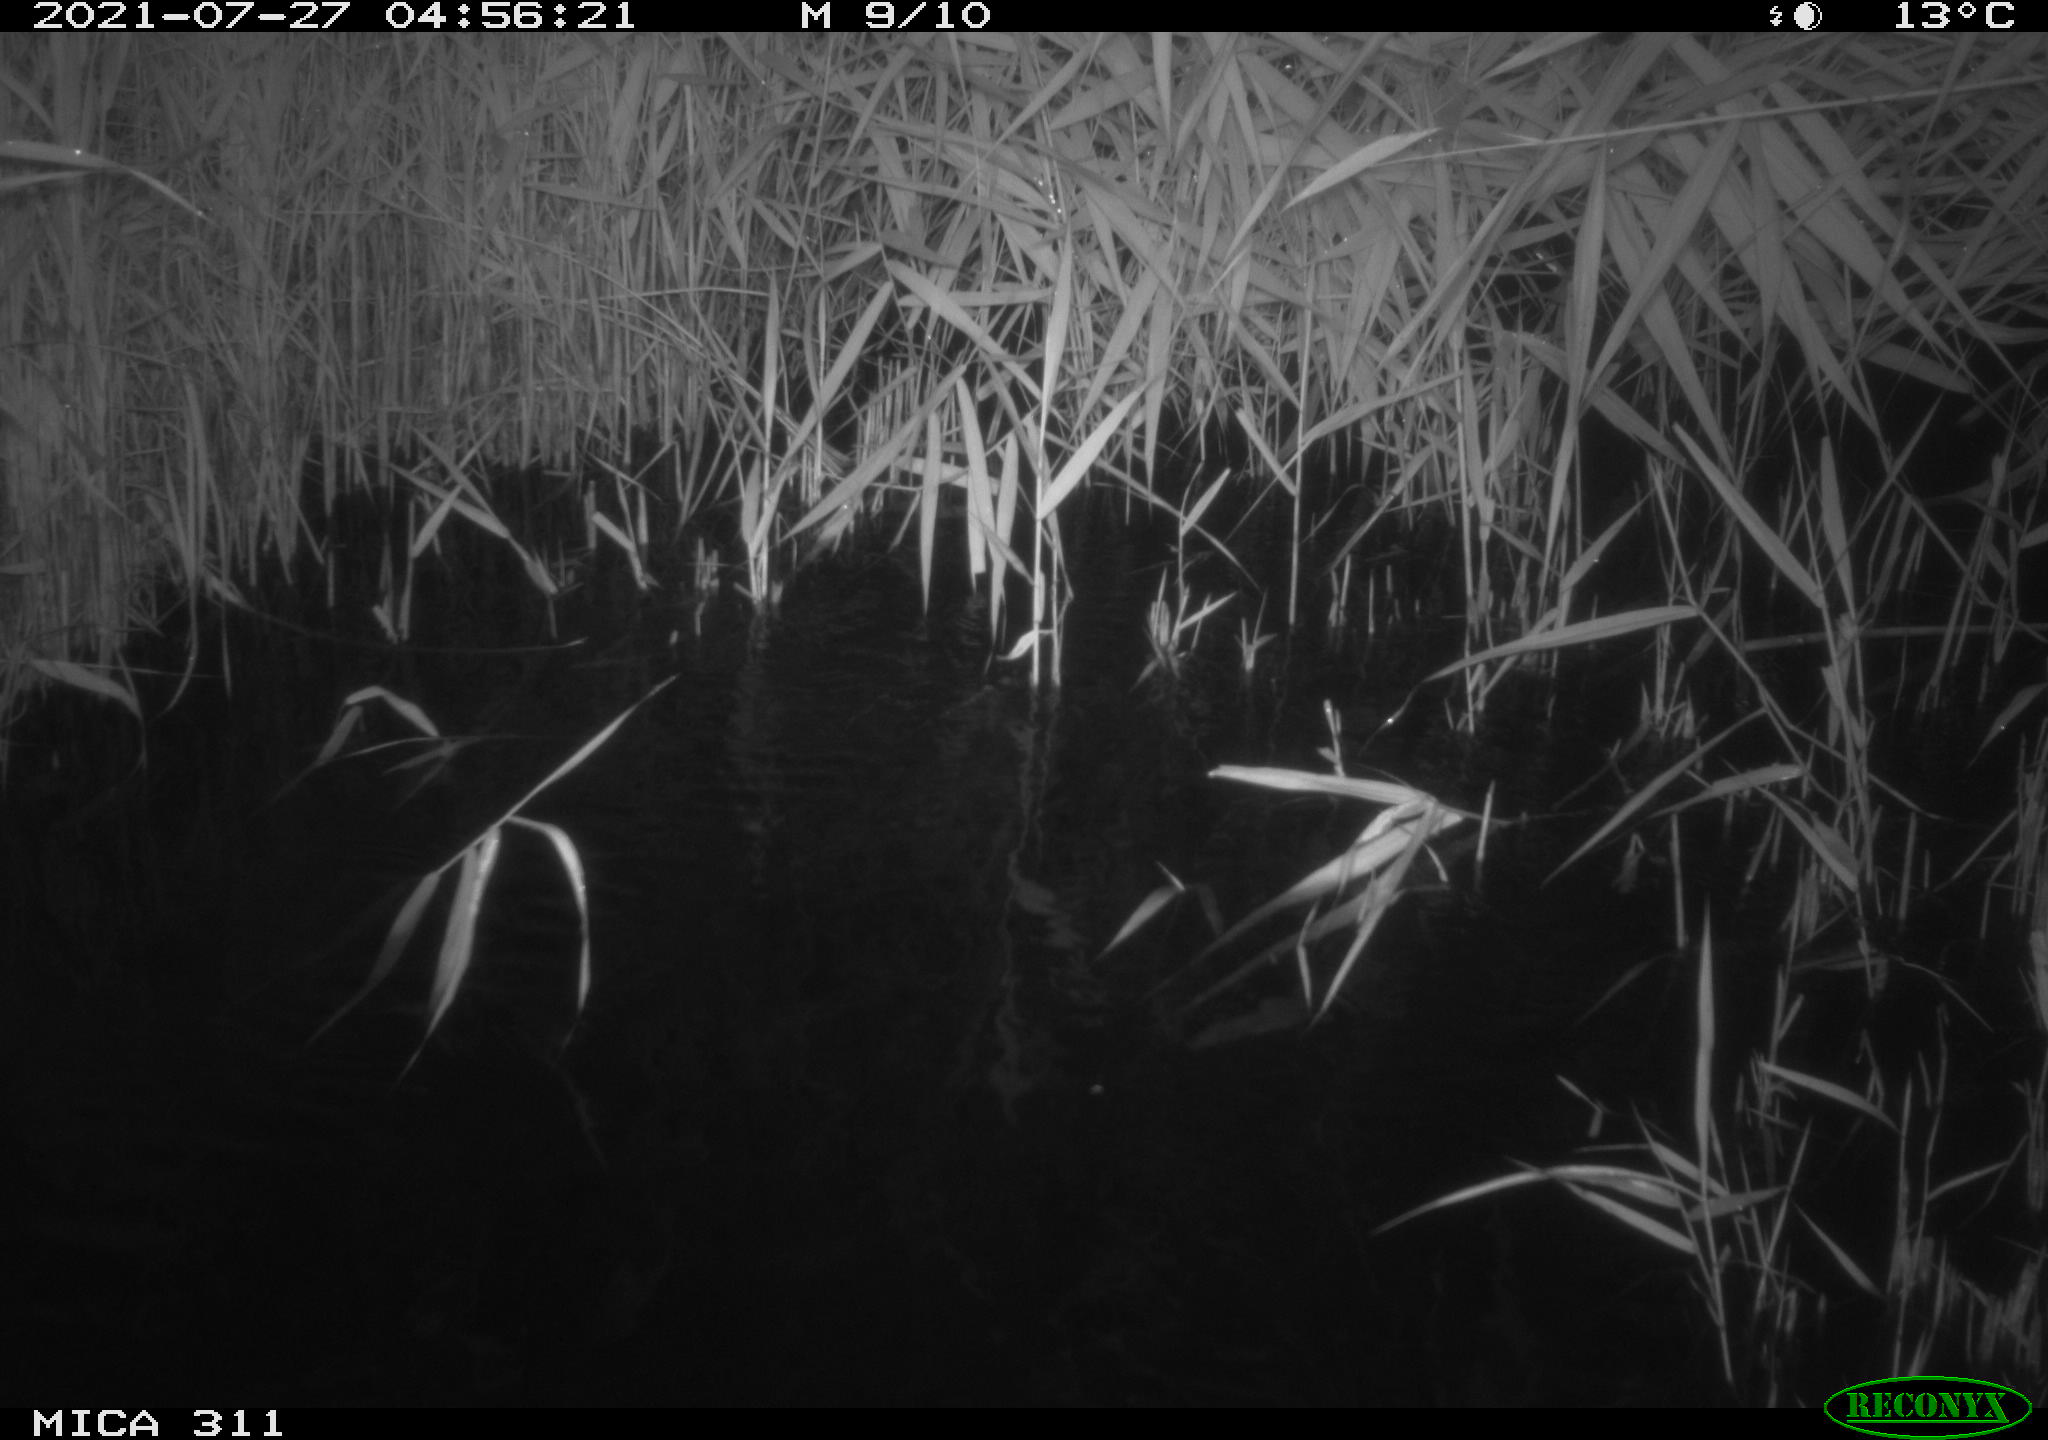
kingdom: Animalia
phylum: Chordata
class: Mammalia
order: Rodentia
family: Muridae
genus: Rattus
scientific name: Rattus norvegicus
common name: Brown rat
